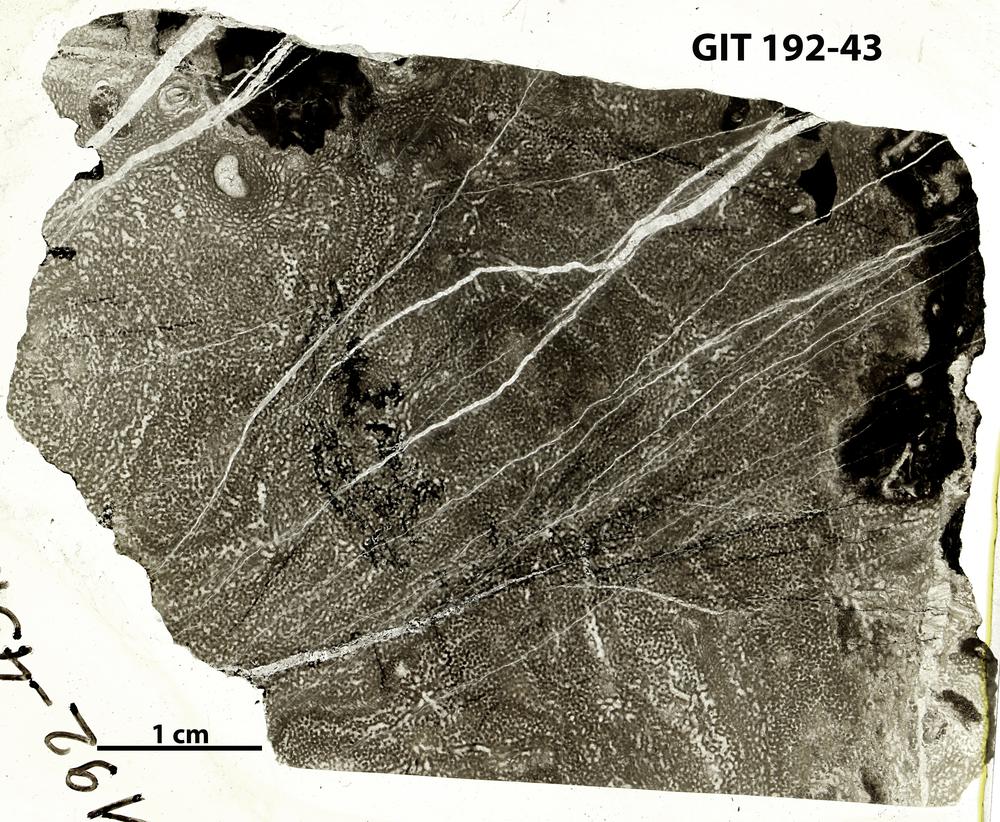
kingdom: Animalia
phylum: Porifera
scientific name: Porifera
